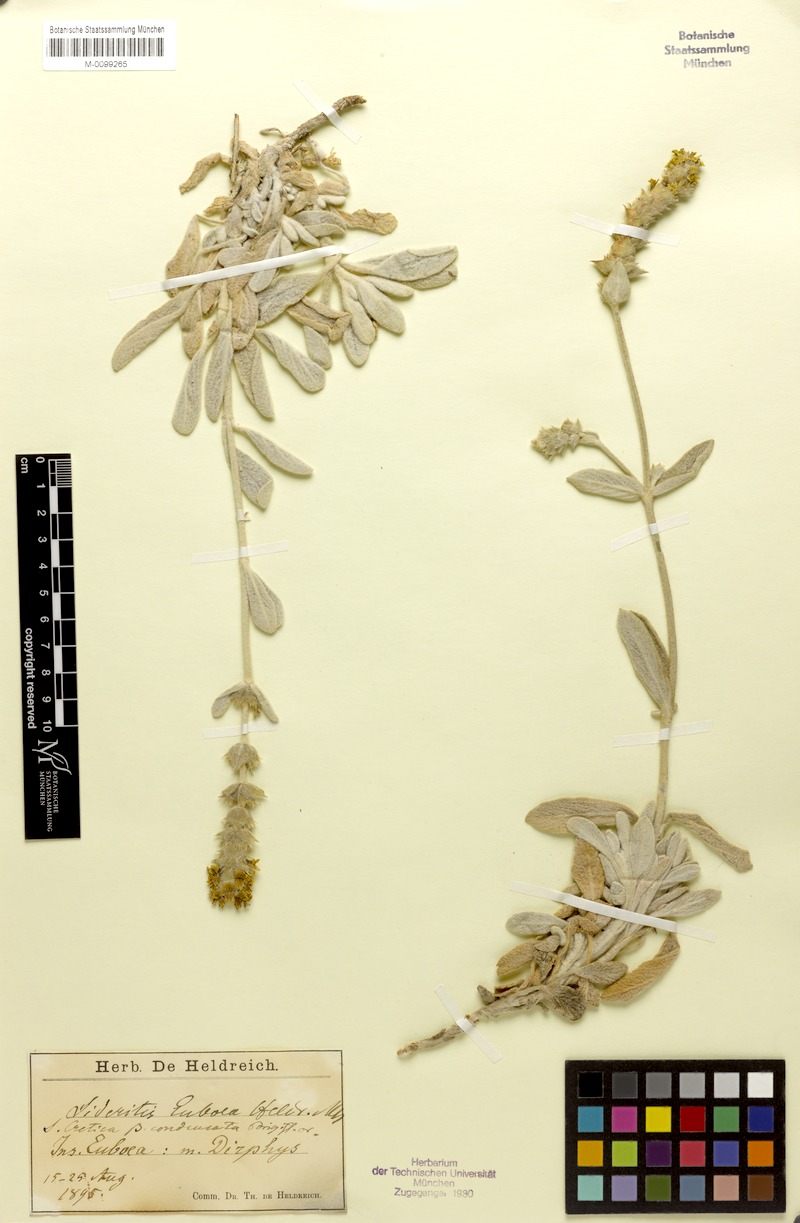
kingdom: Plantae
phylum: Tracheophyta
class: Magnoliopsida
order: Lamiales
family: Lamiaceae
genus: Sideritis
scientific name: Sideritis euboea
